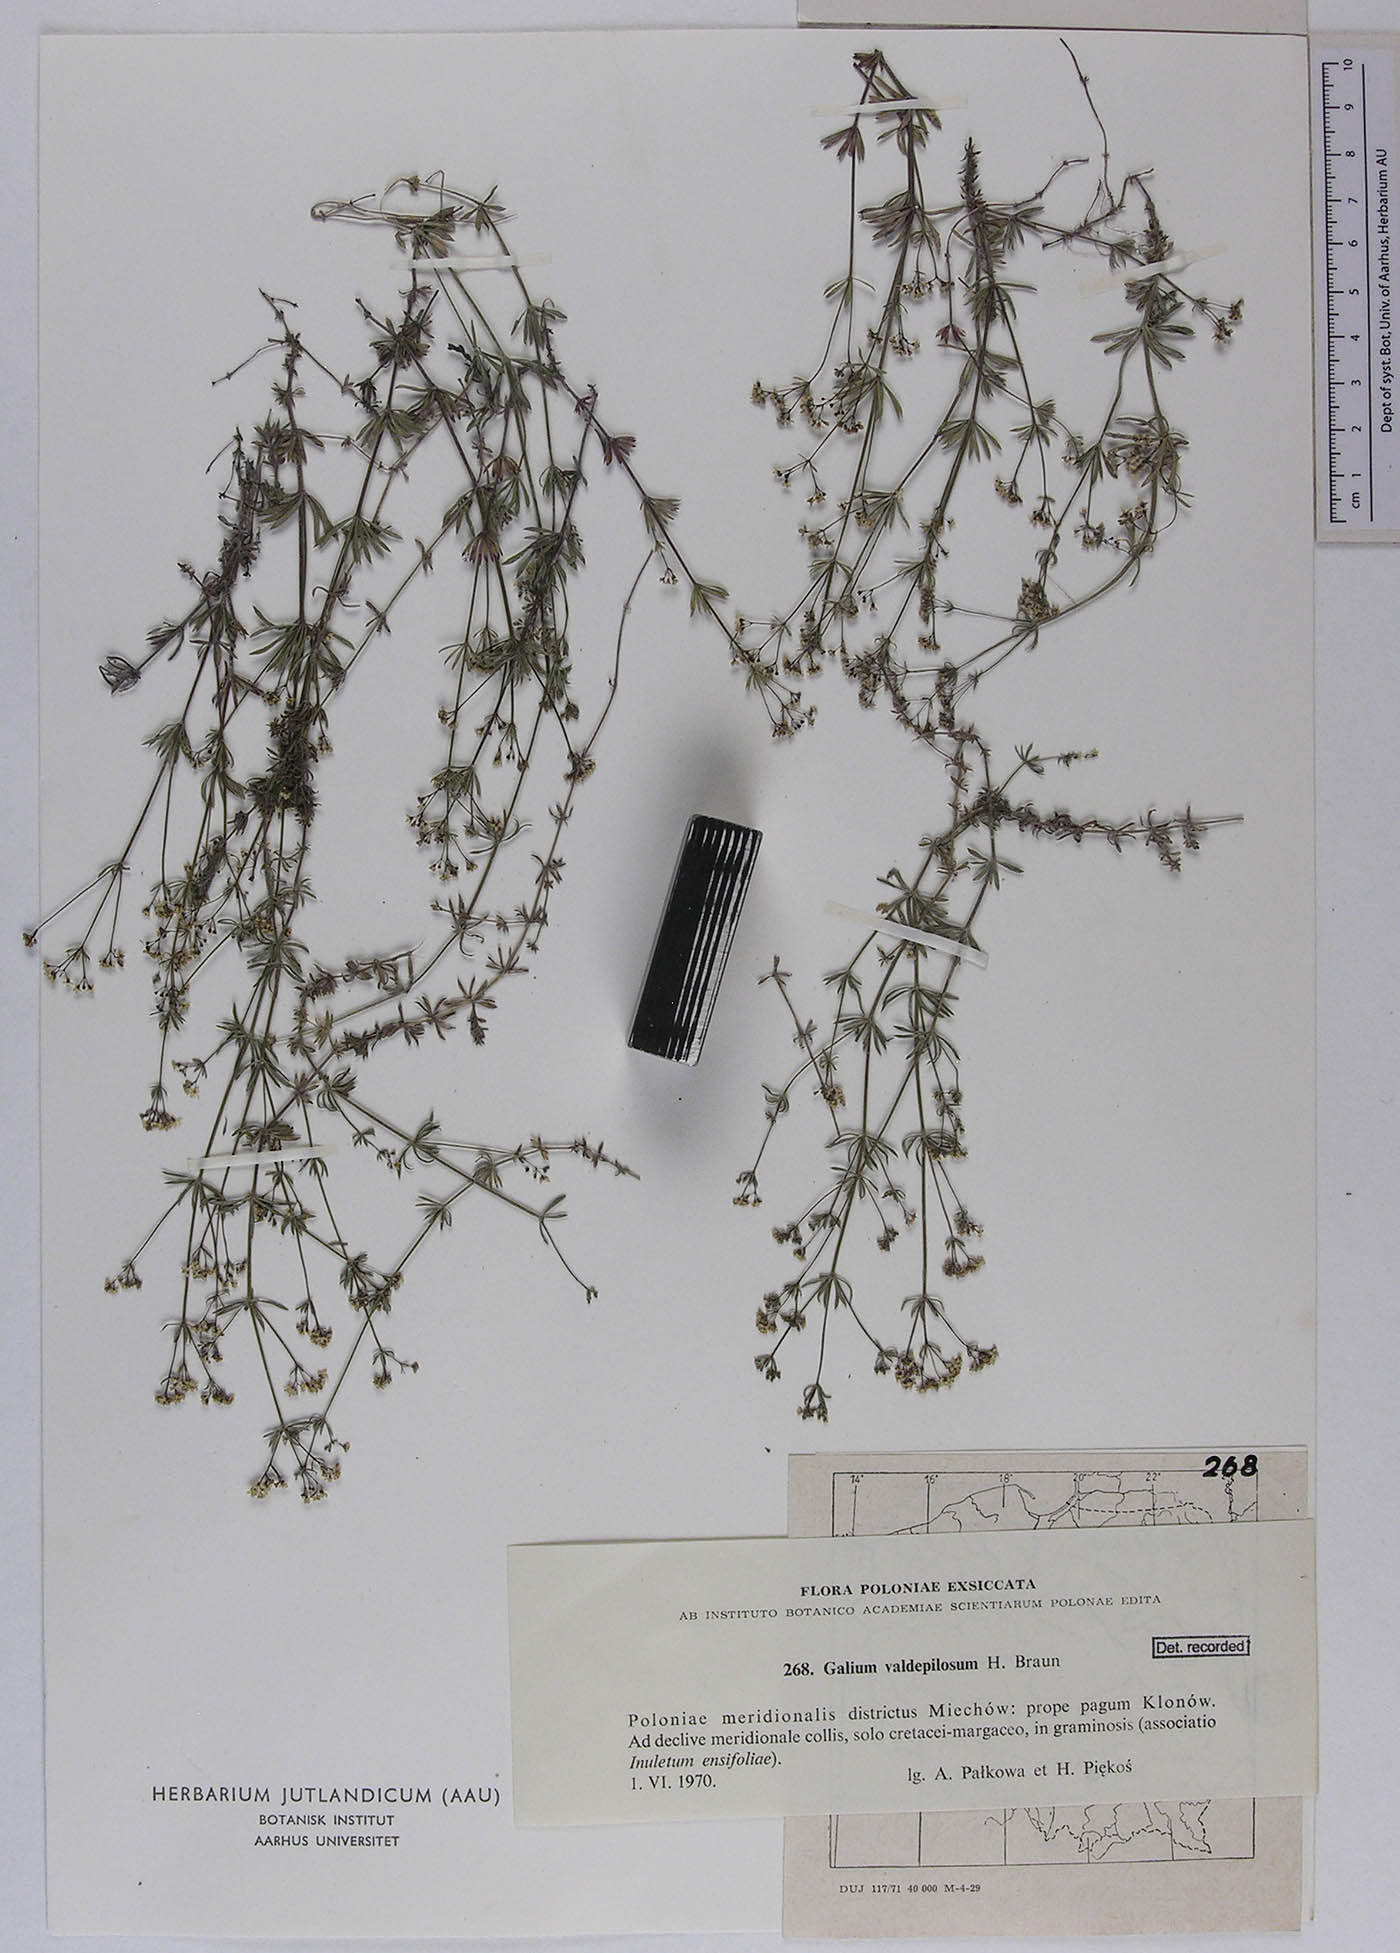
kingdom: Plantae
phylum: Tracheophyta
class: Magnoliopsida
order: Gentianales
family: Rubiaceae
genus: Galium
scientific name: Galium valdepilosum
